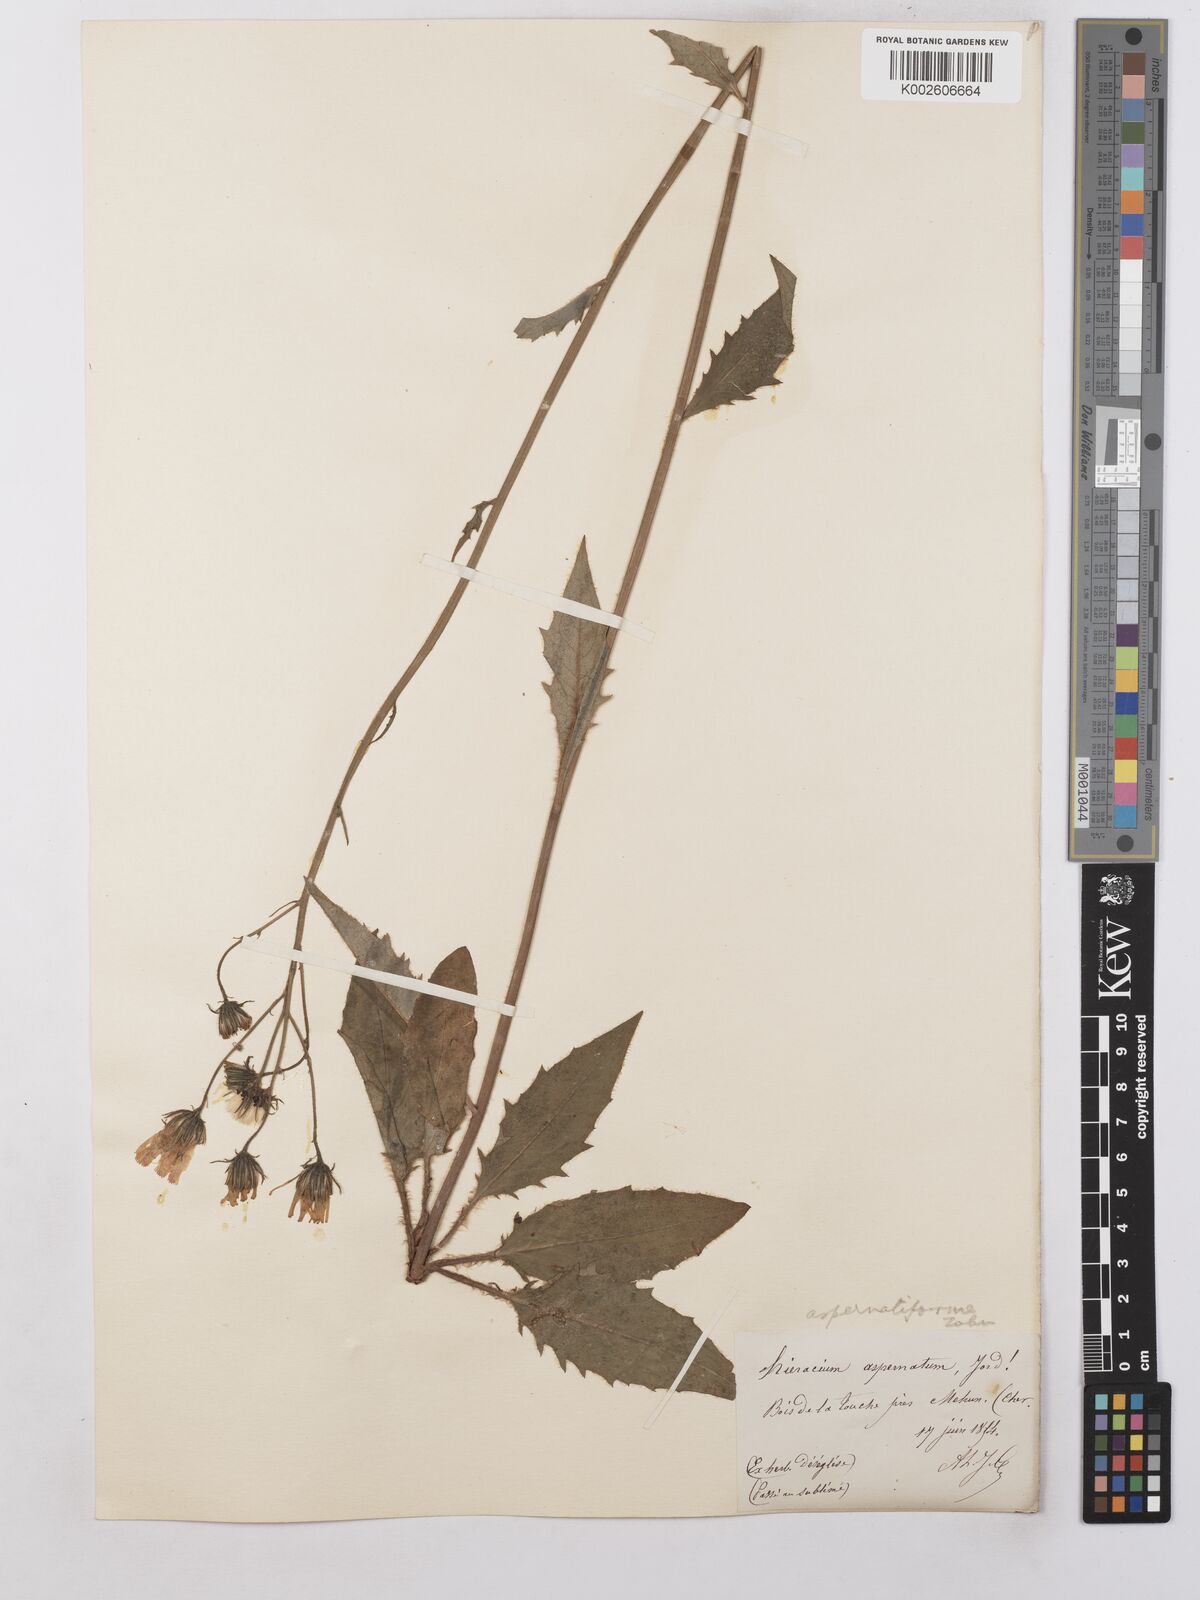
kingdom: Plantae
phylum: Tracheophyta
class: Magnoliopsida
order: Asterales
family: Asteraceae
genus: Hieracium
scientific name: Hieracium lachenalii
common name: Common hawkweed
